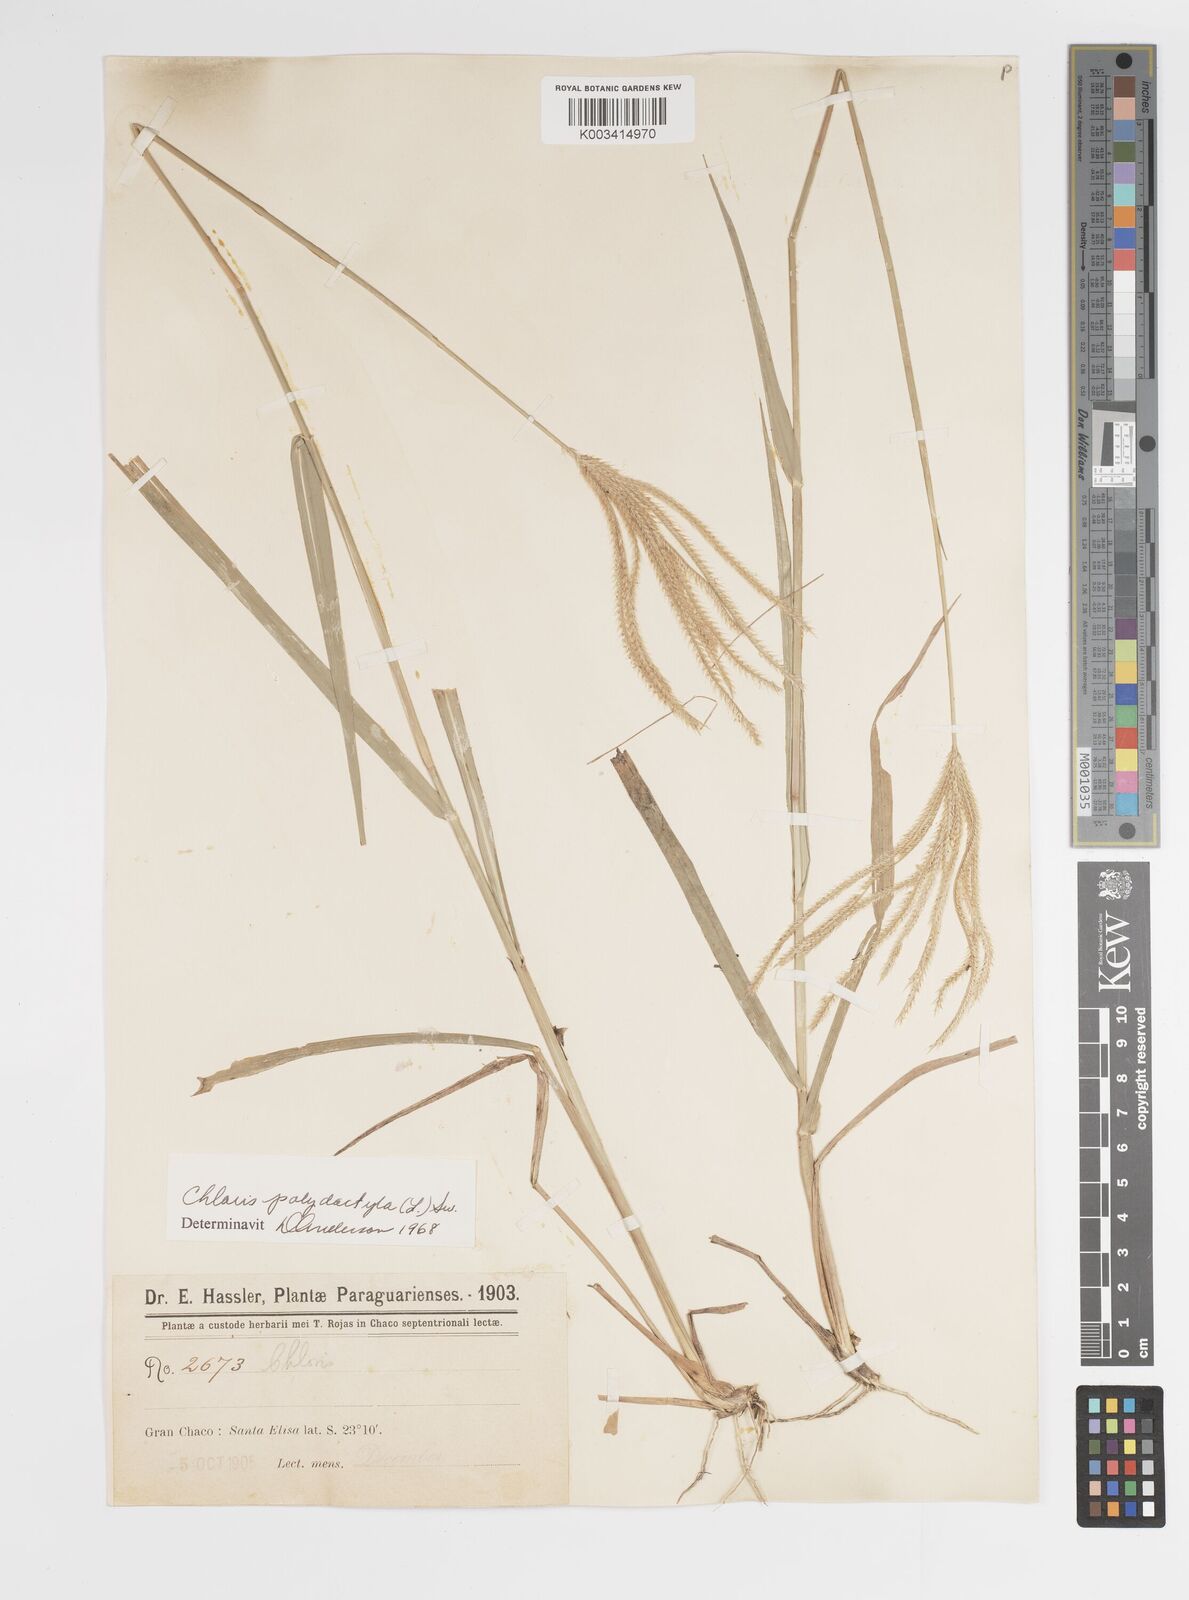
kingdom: Plantae
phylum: Tracheophyta
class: Liliopsida
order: Poales
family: Poaceae
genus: Stapfochloa
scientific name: Stapfochloa elata
